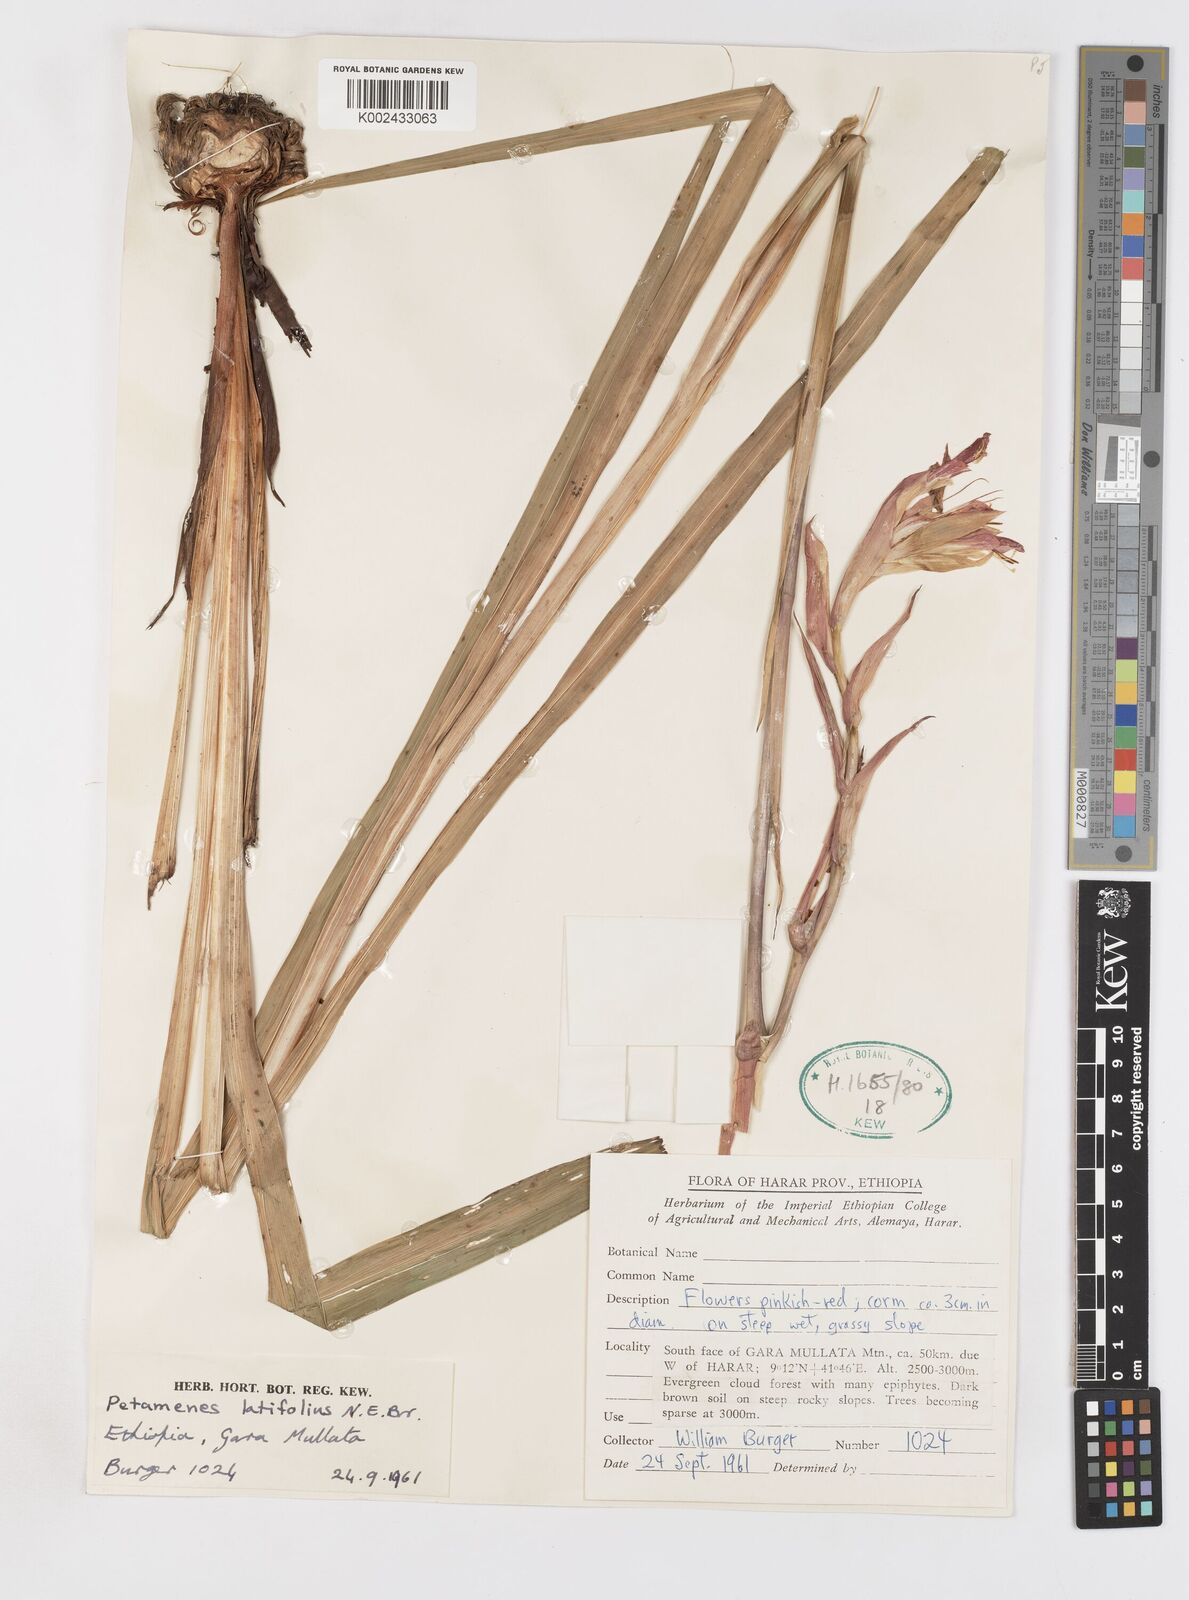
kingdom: Plantae
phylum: Tracheophyta
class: Liliopsida
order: Asparagales
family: Iridaceae
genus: Gladiolus
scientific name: Gladiolus abyssinicus
